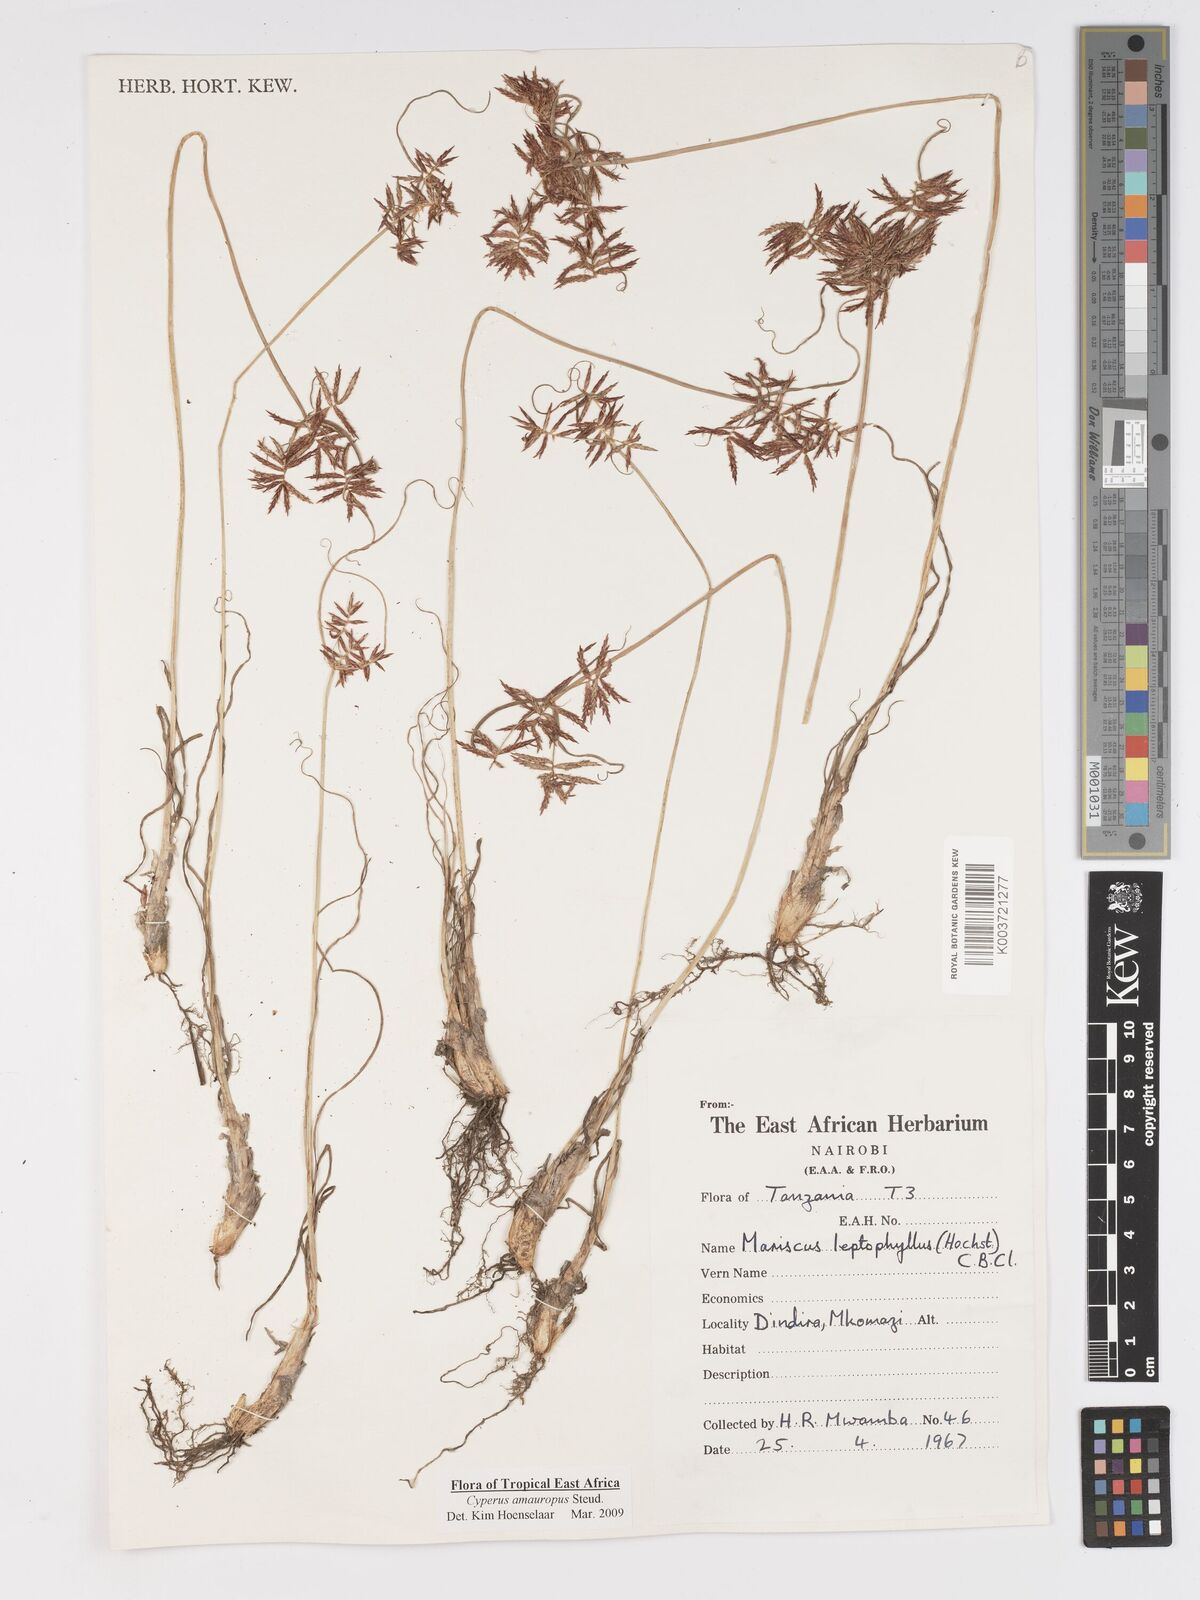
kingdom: Plantae
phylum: Tracheophyta
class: Liliopsida
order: Poales
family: Cyperaceae
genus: Cyperus
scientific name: Cyperus amauropus
